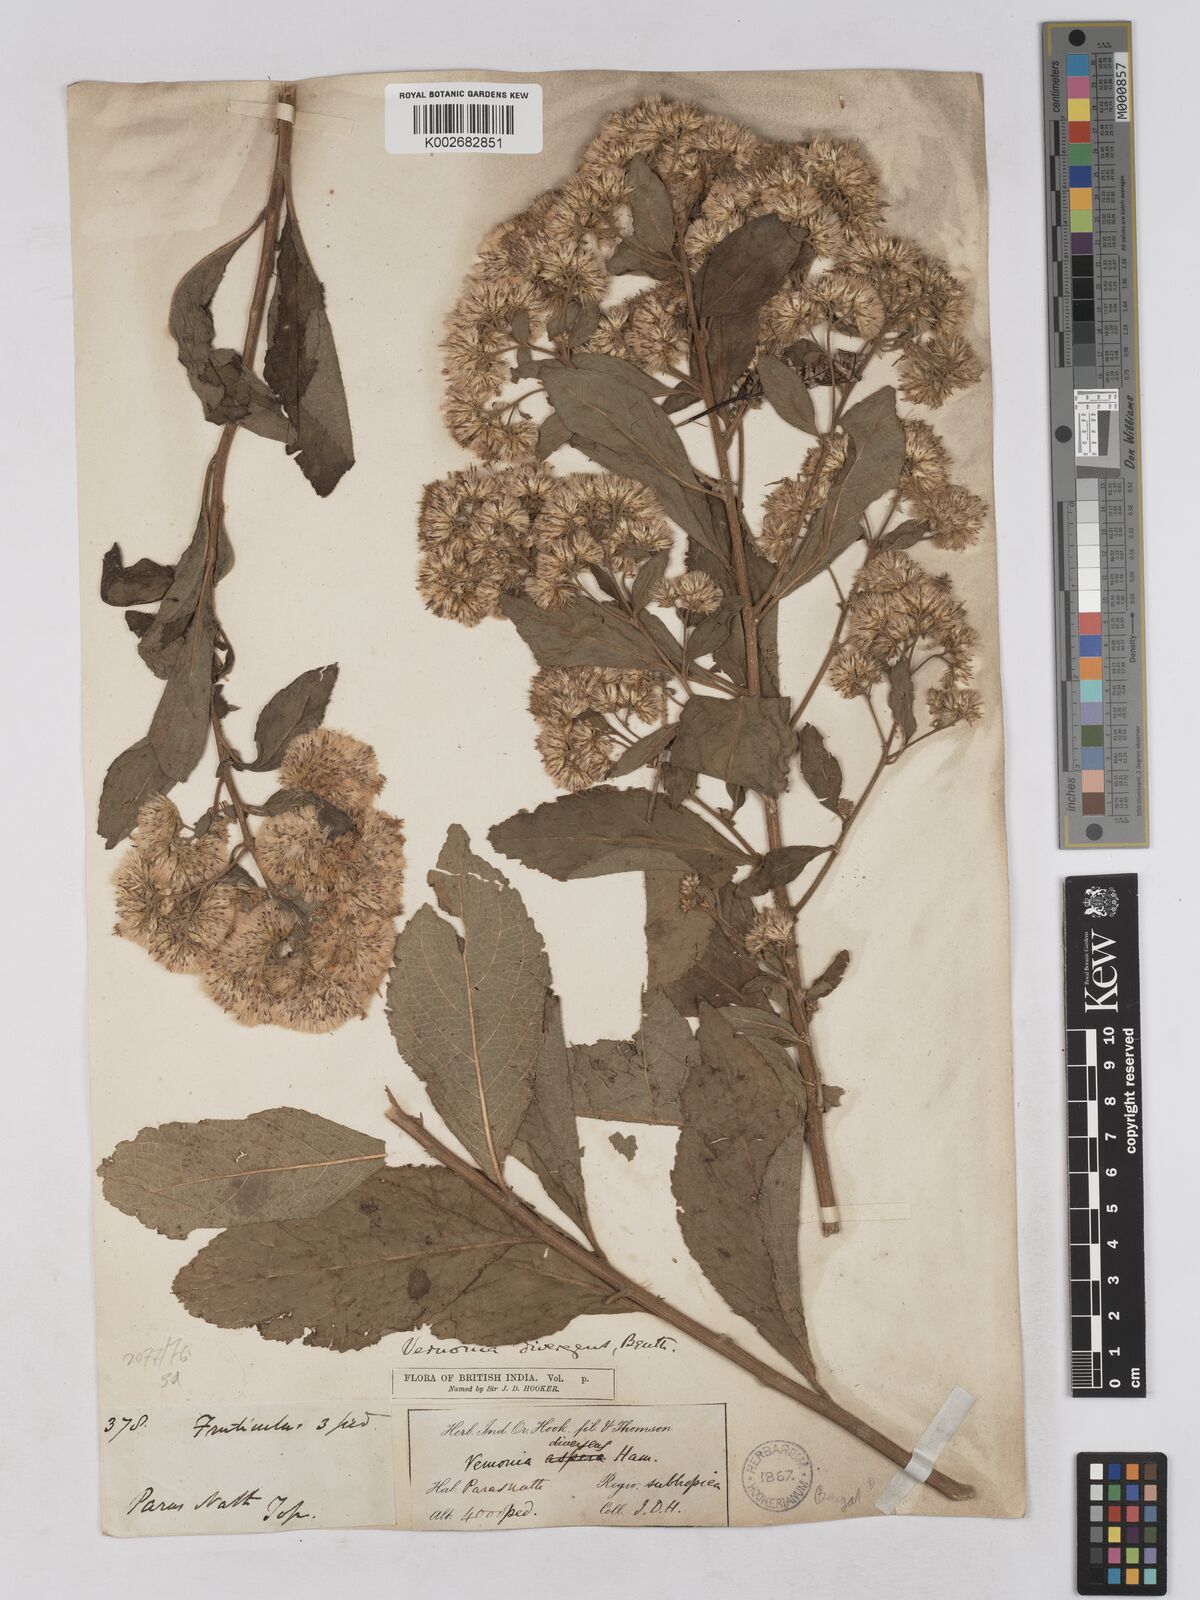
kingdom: Plantae
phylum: Tracheophyta
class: Magnoliopsida
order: Asterales
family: Asteraceae
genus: Acilepis
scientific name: Acilepis divergens
